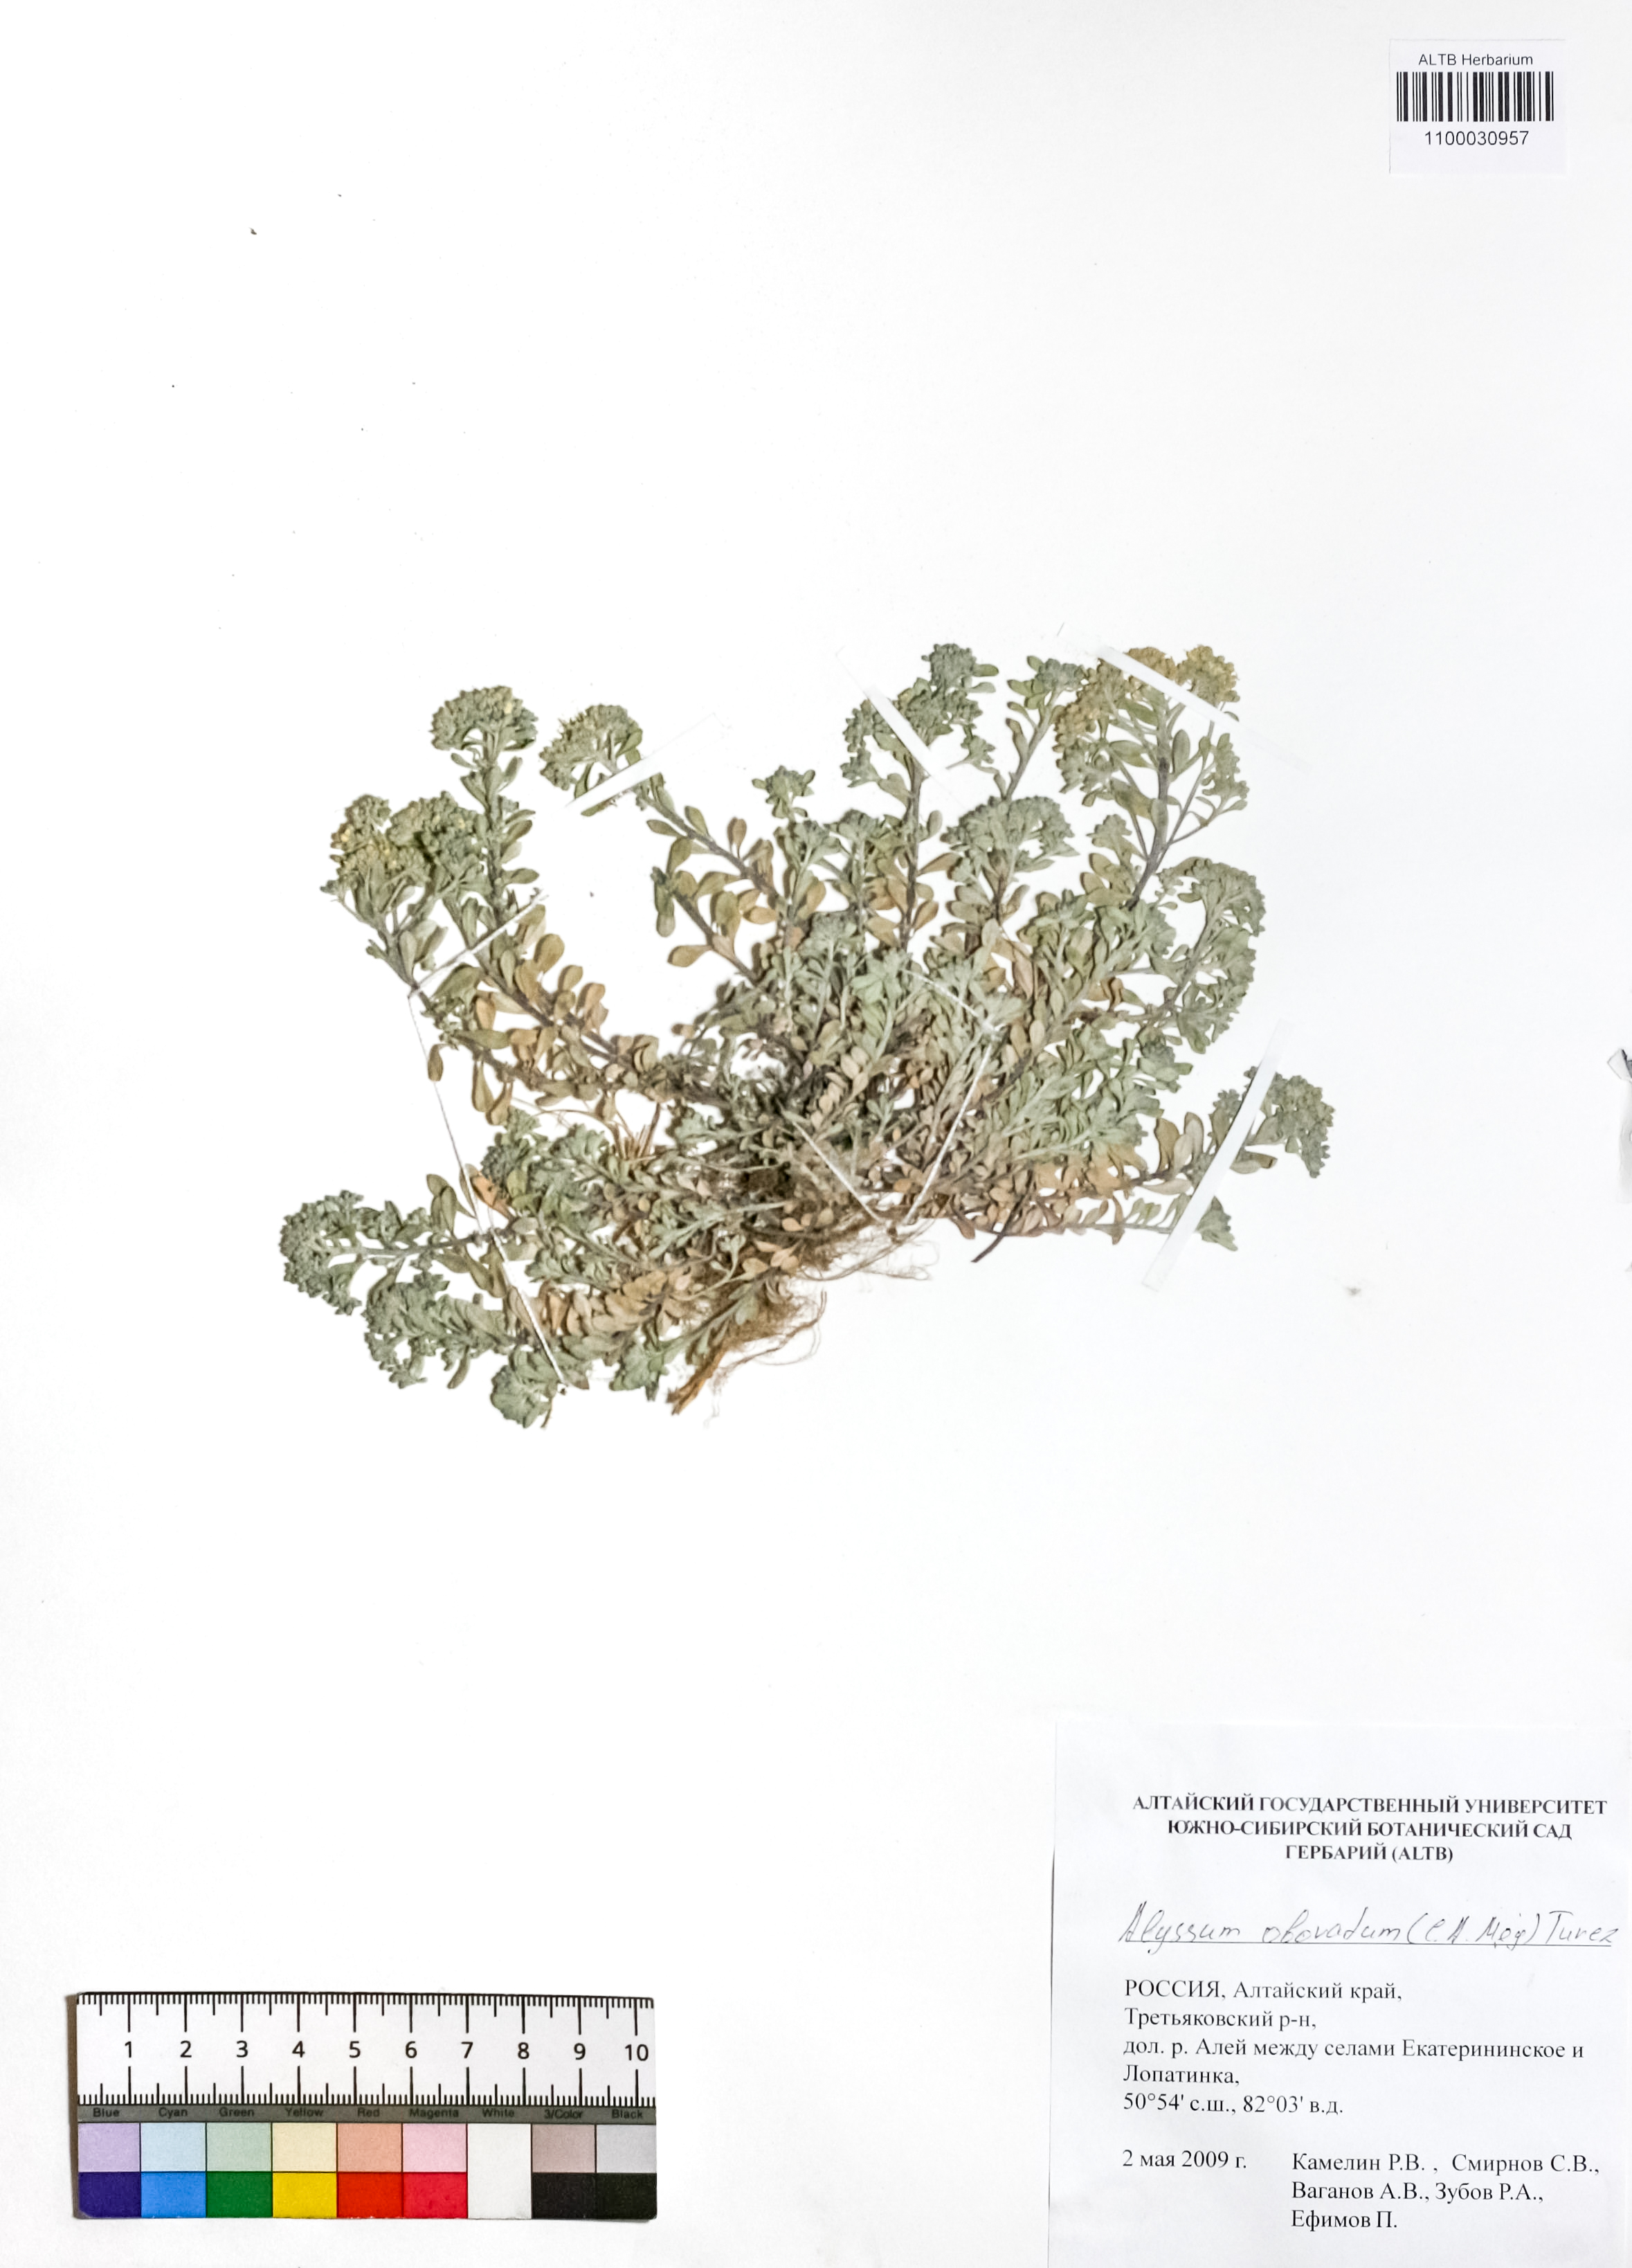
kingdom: Plantae
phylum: Tracheophyta
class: Magnoliopsida
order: Brassicales
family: Brassicaceae
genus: Odontarrhena
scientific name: Odontarrhena obovata
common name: American alyssum
